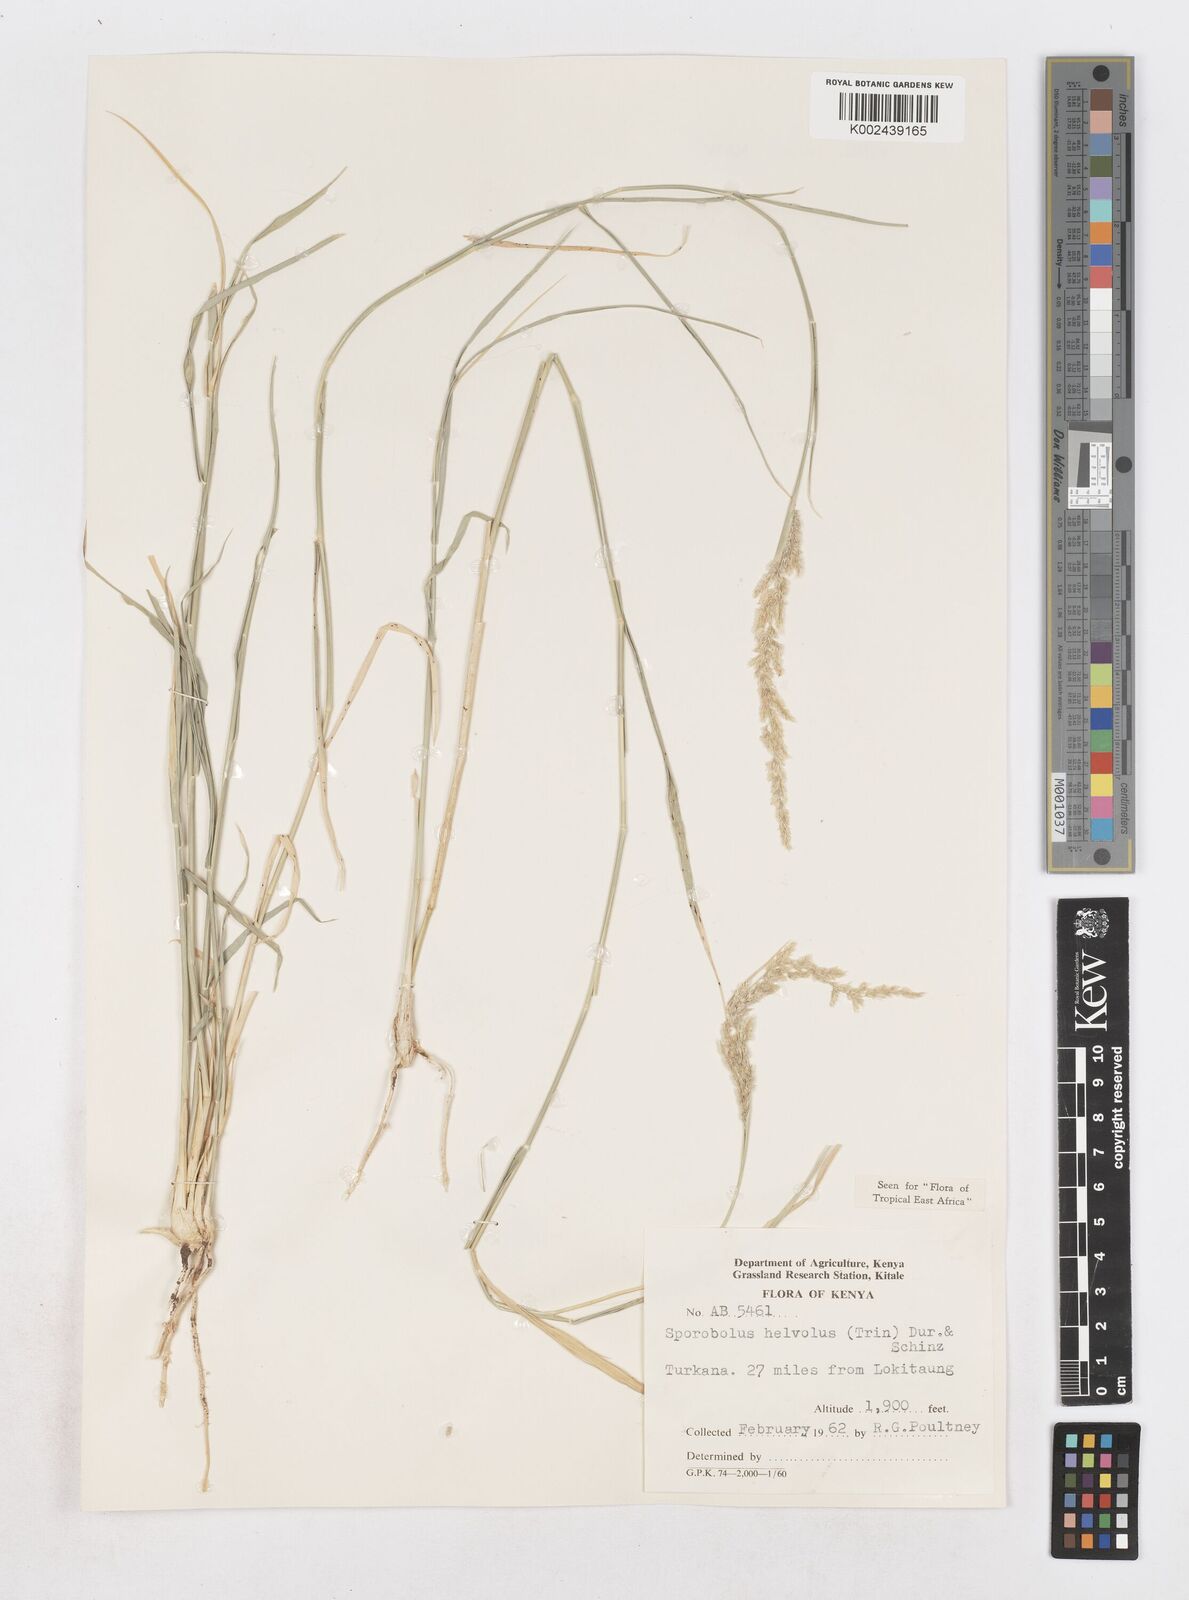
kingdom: Plantae
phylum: Tracheophyta
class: Liliopsida
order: Poales
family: Poaceae
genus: Sporobolus
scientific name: Sporobolus helvolus
